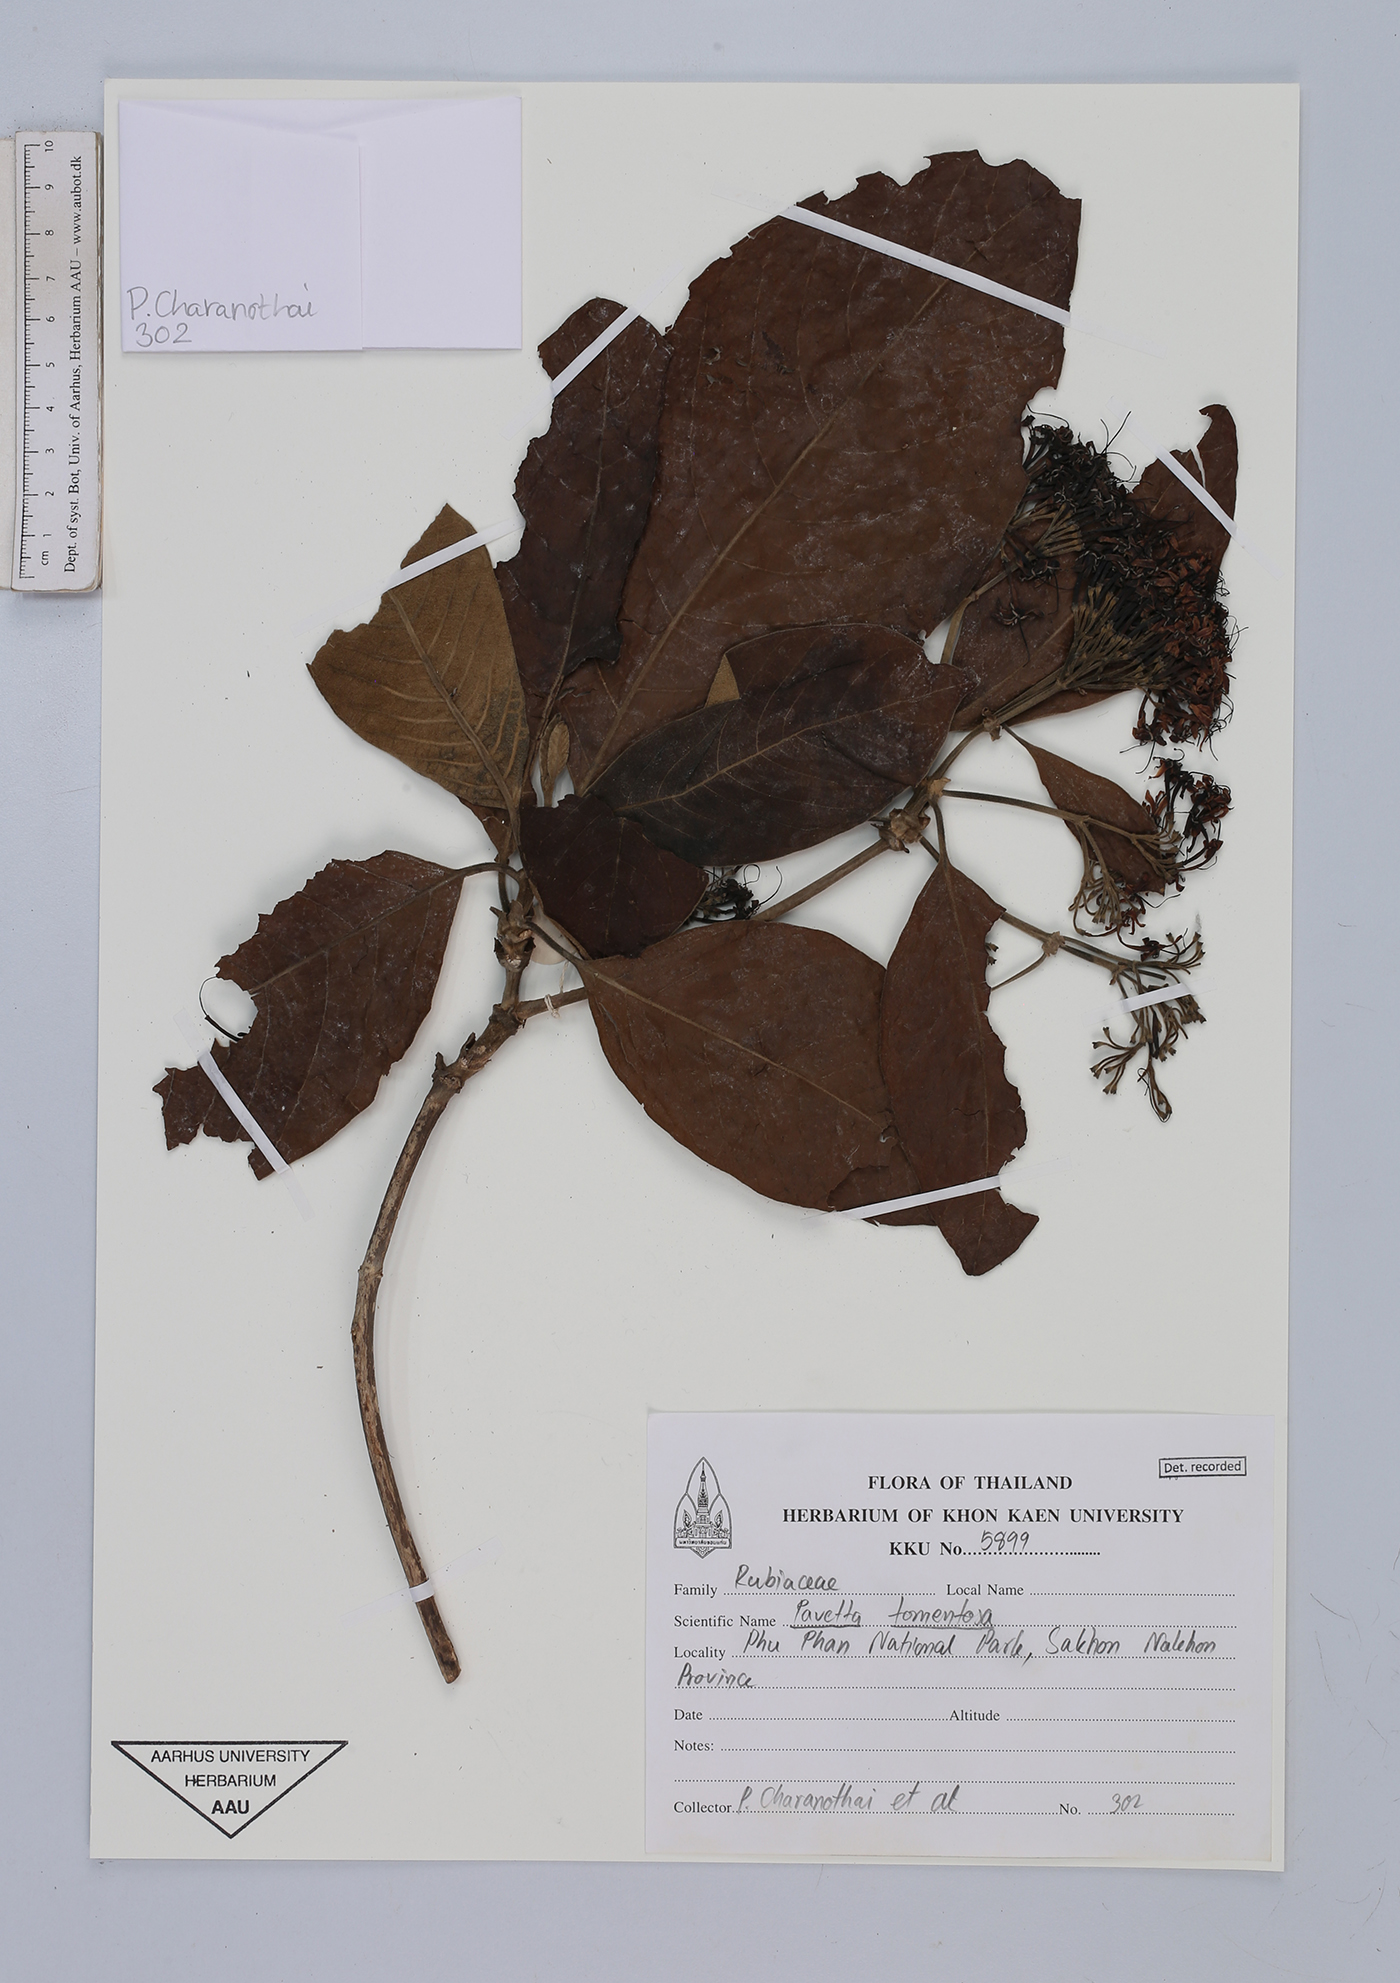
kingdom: Plantae
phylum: Tracheophyta
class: Magnoliopsida
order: Gentianales
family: Rubiaceae
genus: Pavetta
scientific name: Pavetta tomentosa
